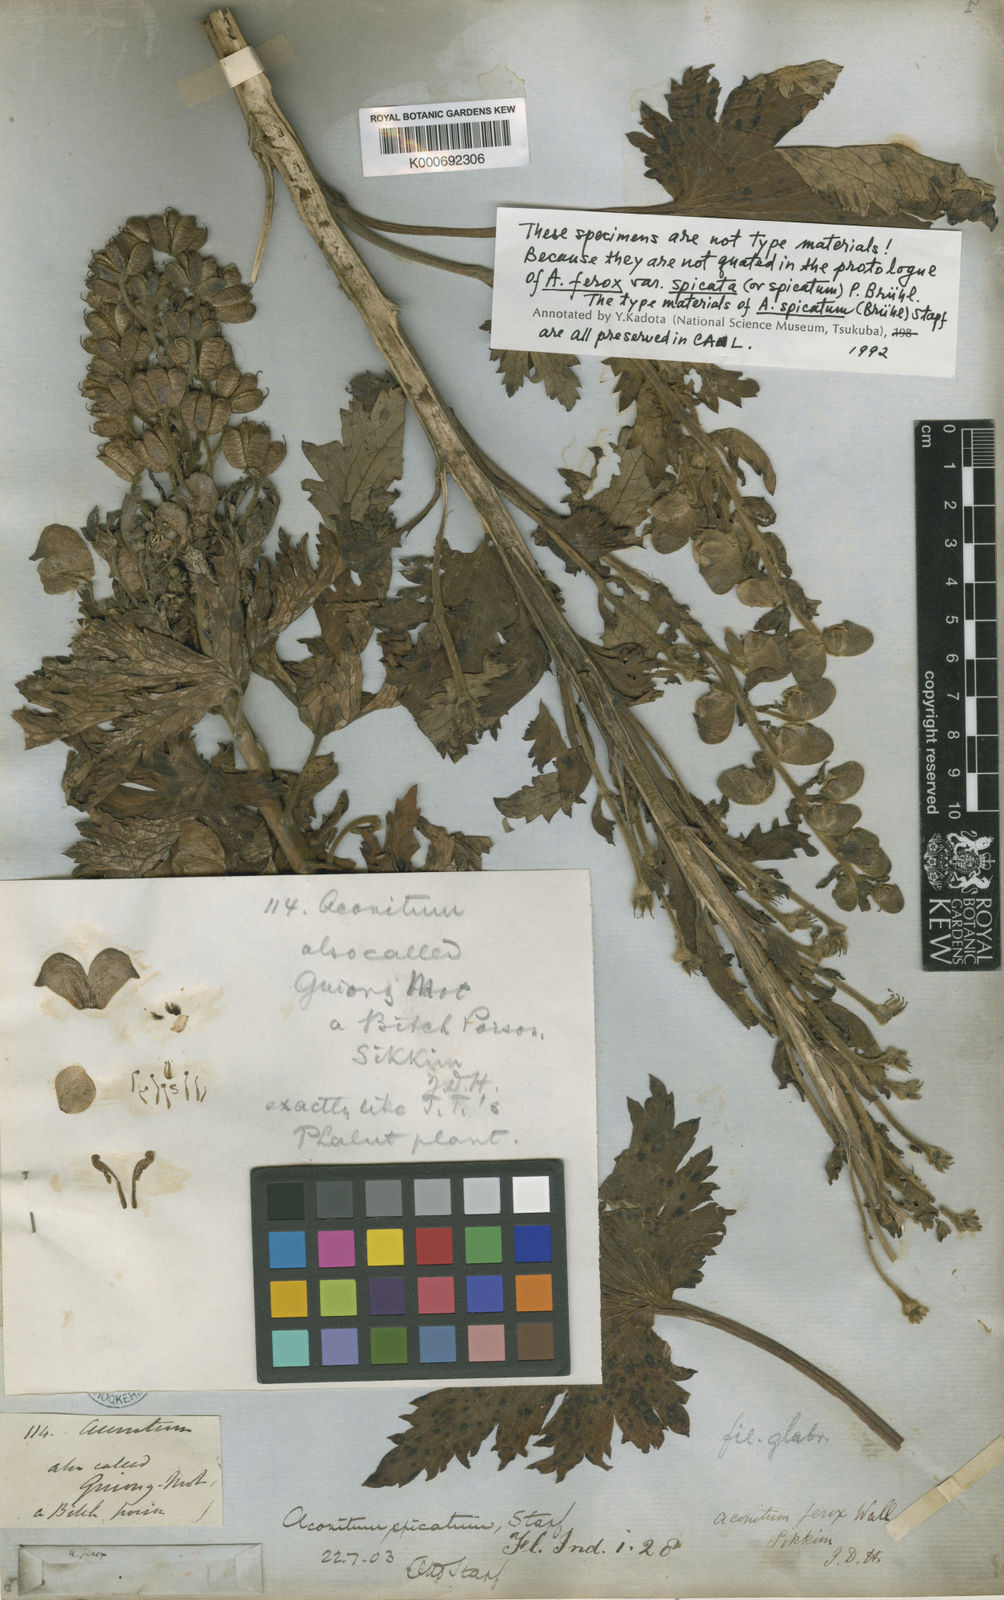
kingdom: Plantae
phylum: Tracheophyta
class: Magnoliopsida
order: Ranunculales
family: Ranunculaceae
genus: Aconitum
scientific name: Aconitum lethale
